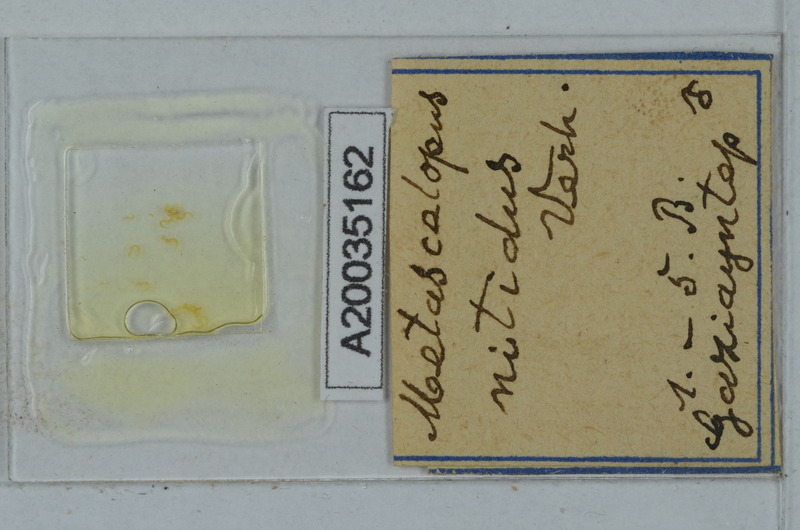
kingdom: Animalia
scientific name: Animalia
